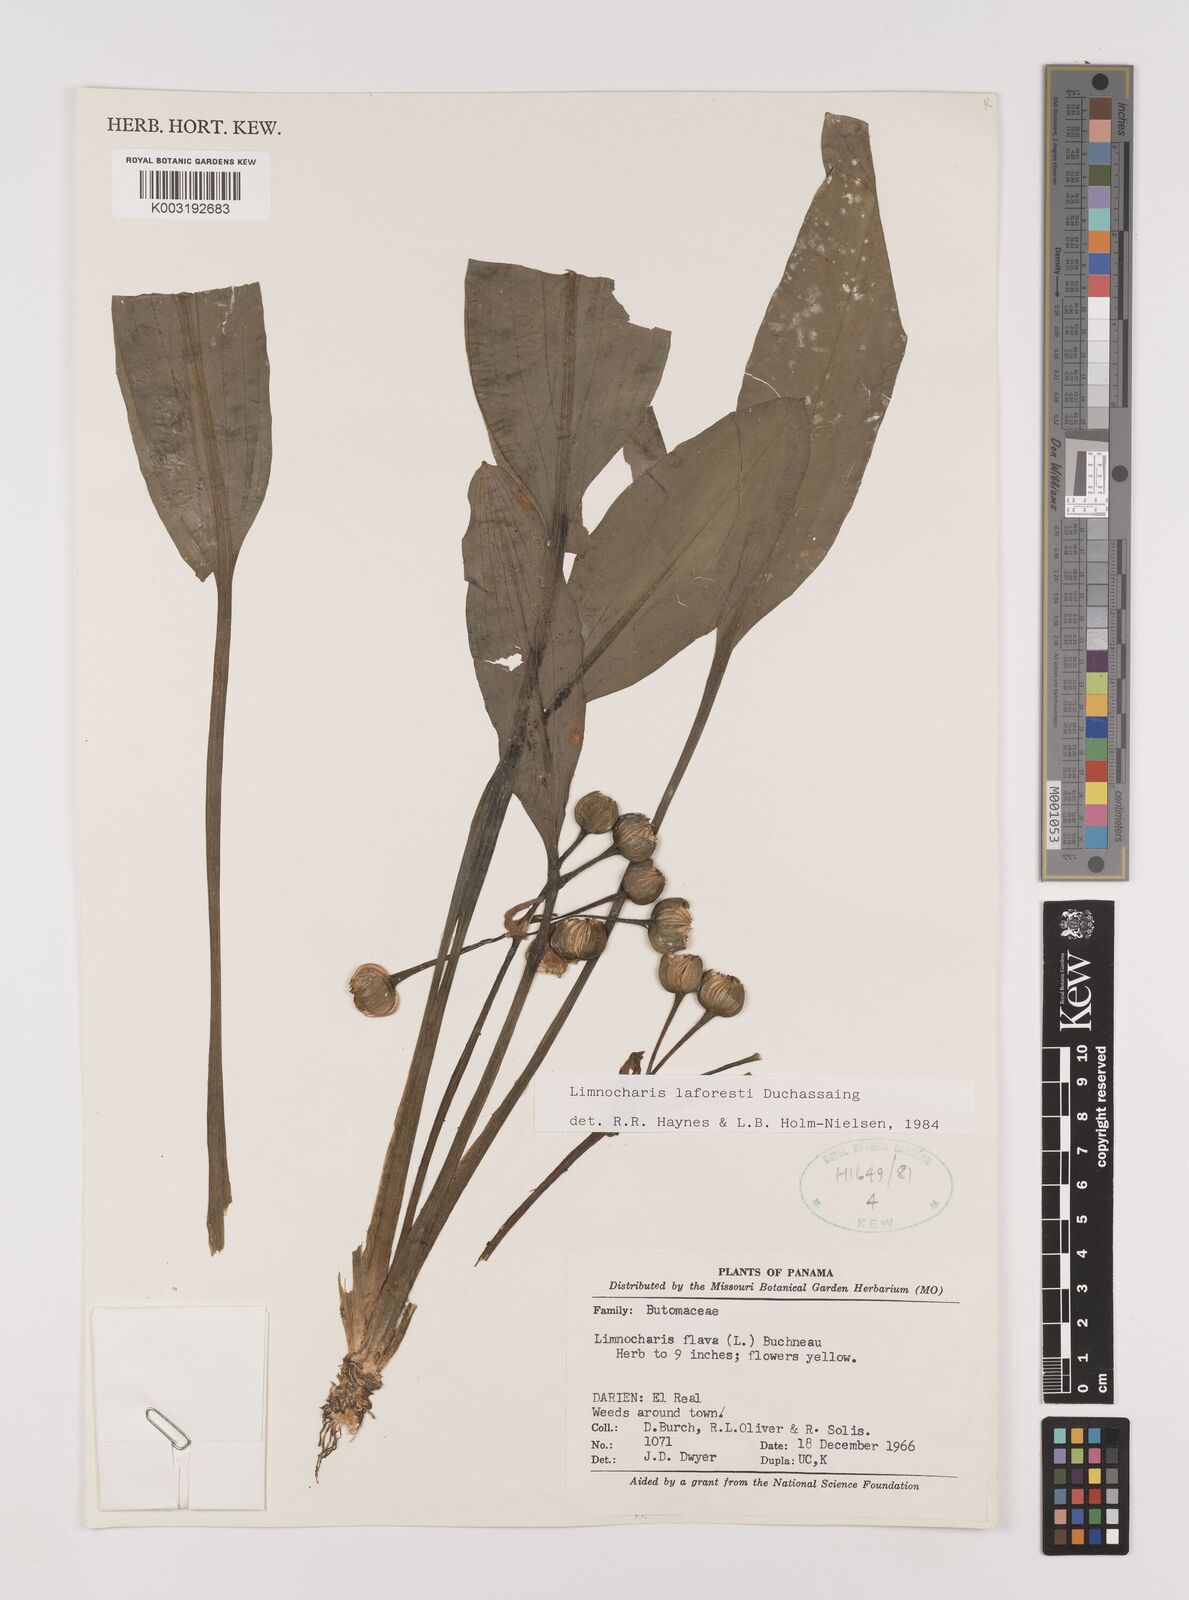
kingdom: Plantae
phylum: Tracheophyta
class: Liliopsida
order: Alismatales
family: Alismataceae
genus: Limnocharis
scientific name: Limnocharis laforestii
